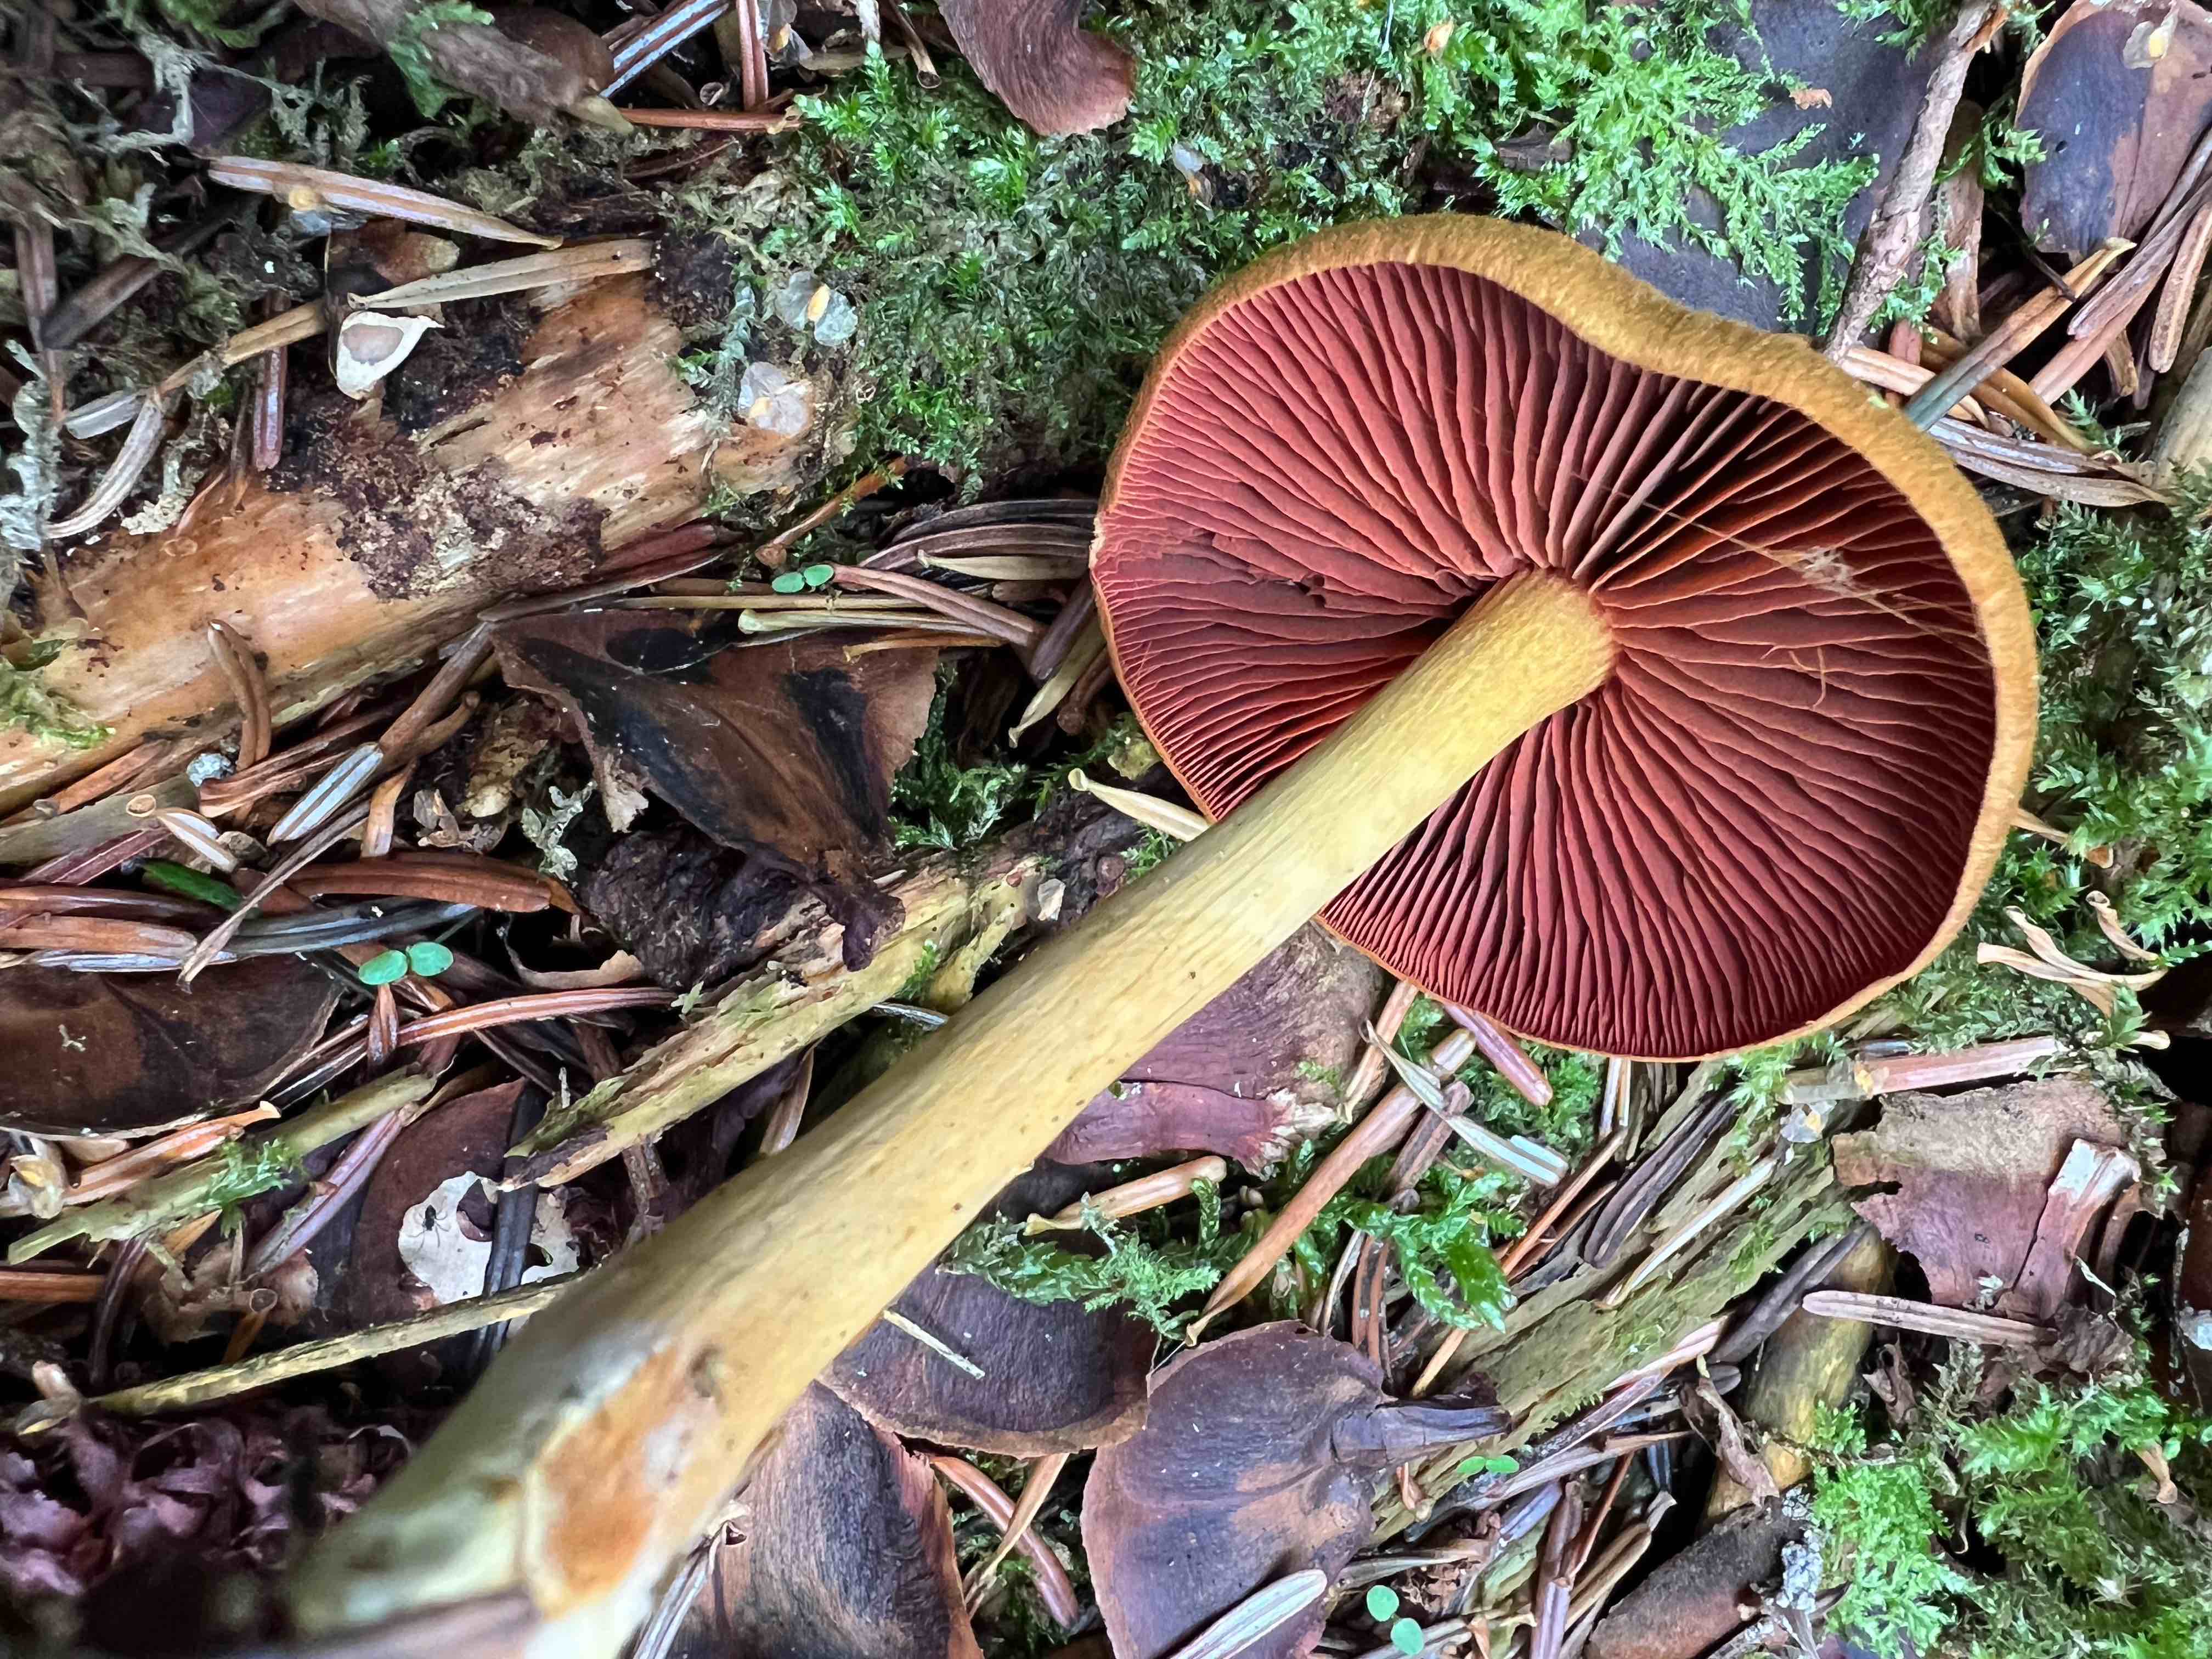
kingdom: Fungi
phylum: Basidiomycota
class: Agaricomycetes
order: Agaricales
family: Cortinariaceae
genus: Cortinarius
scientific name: Cortinarius
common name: cinnoberbladet slørhat
